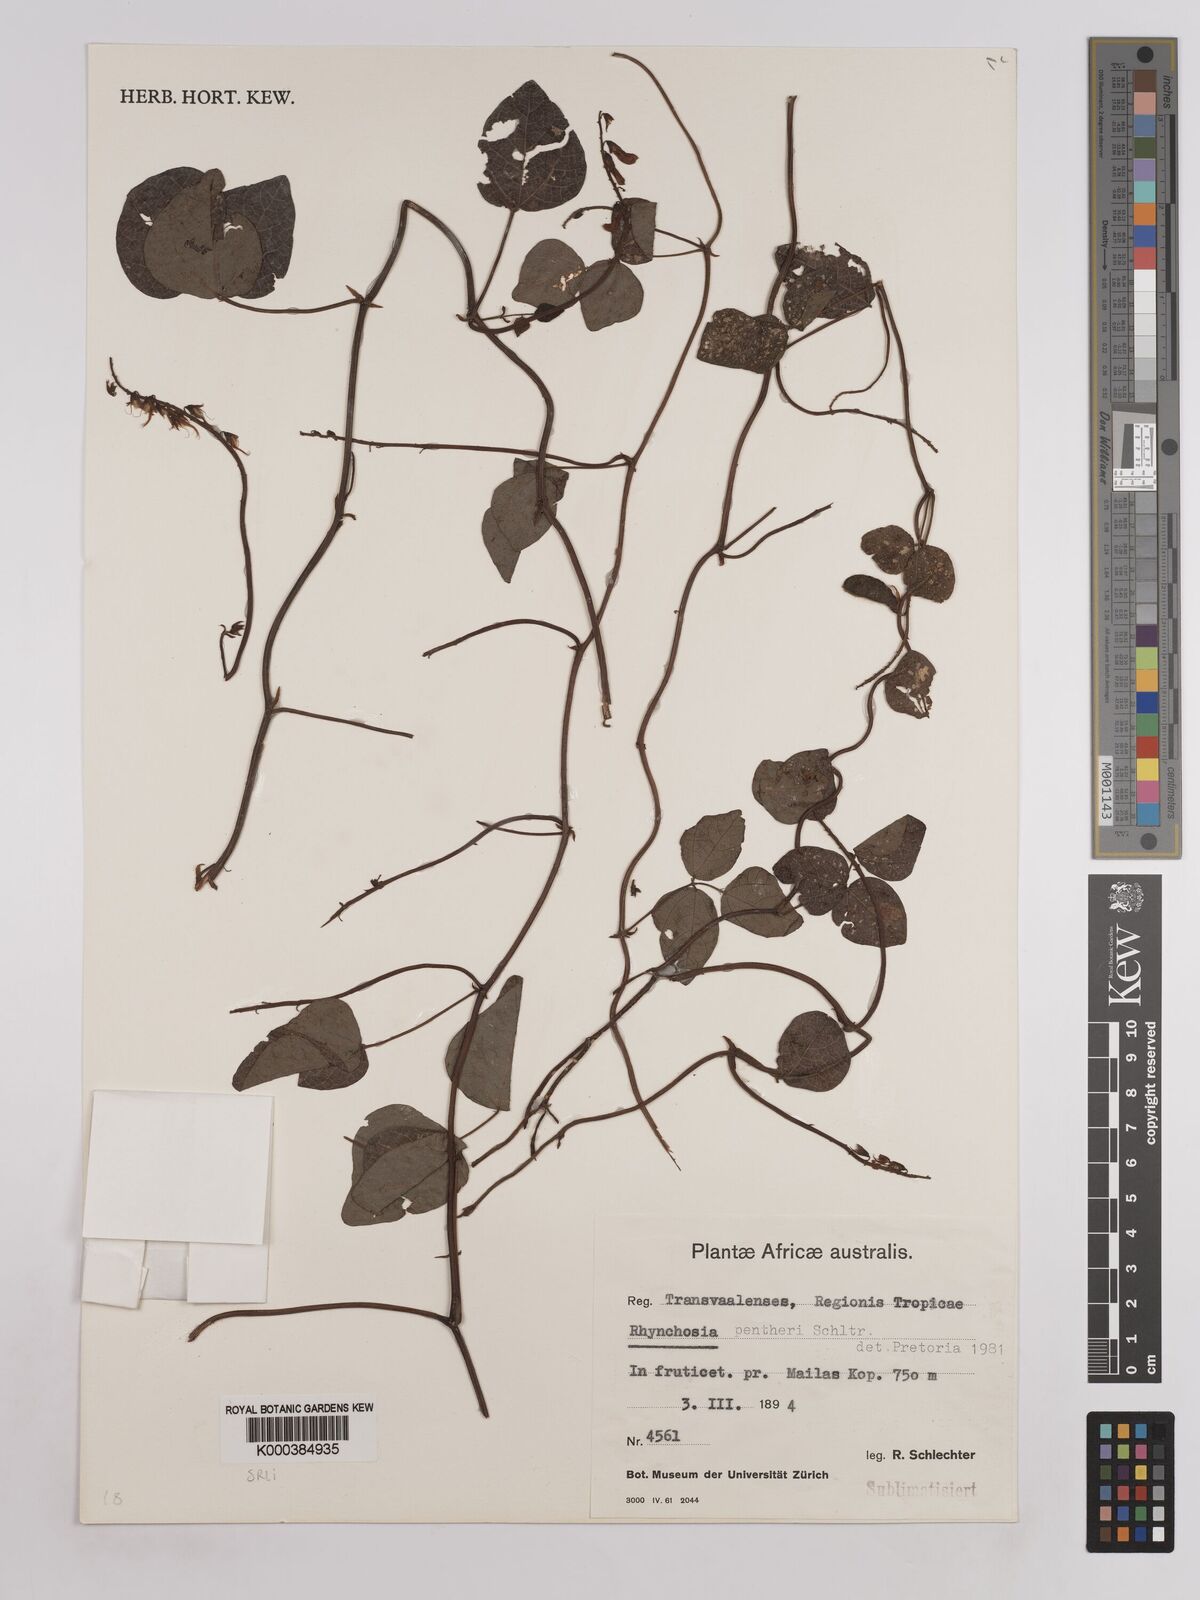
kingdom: Plantae
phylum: Tracheophyta
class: Magnoliopsida
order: Fabales
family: Fabaceae
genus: Rhynchosia
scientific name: Rhynchosia pentheri
